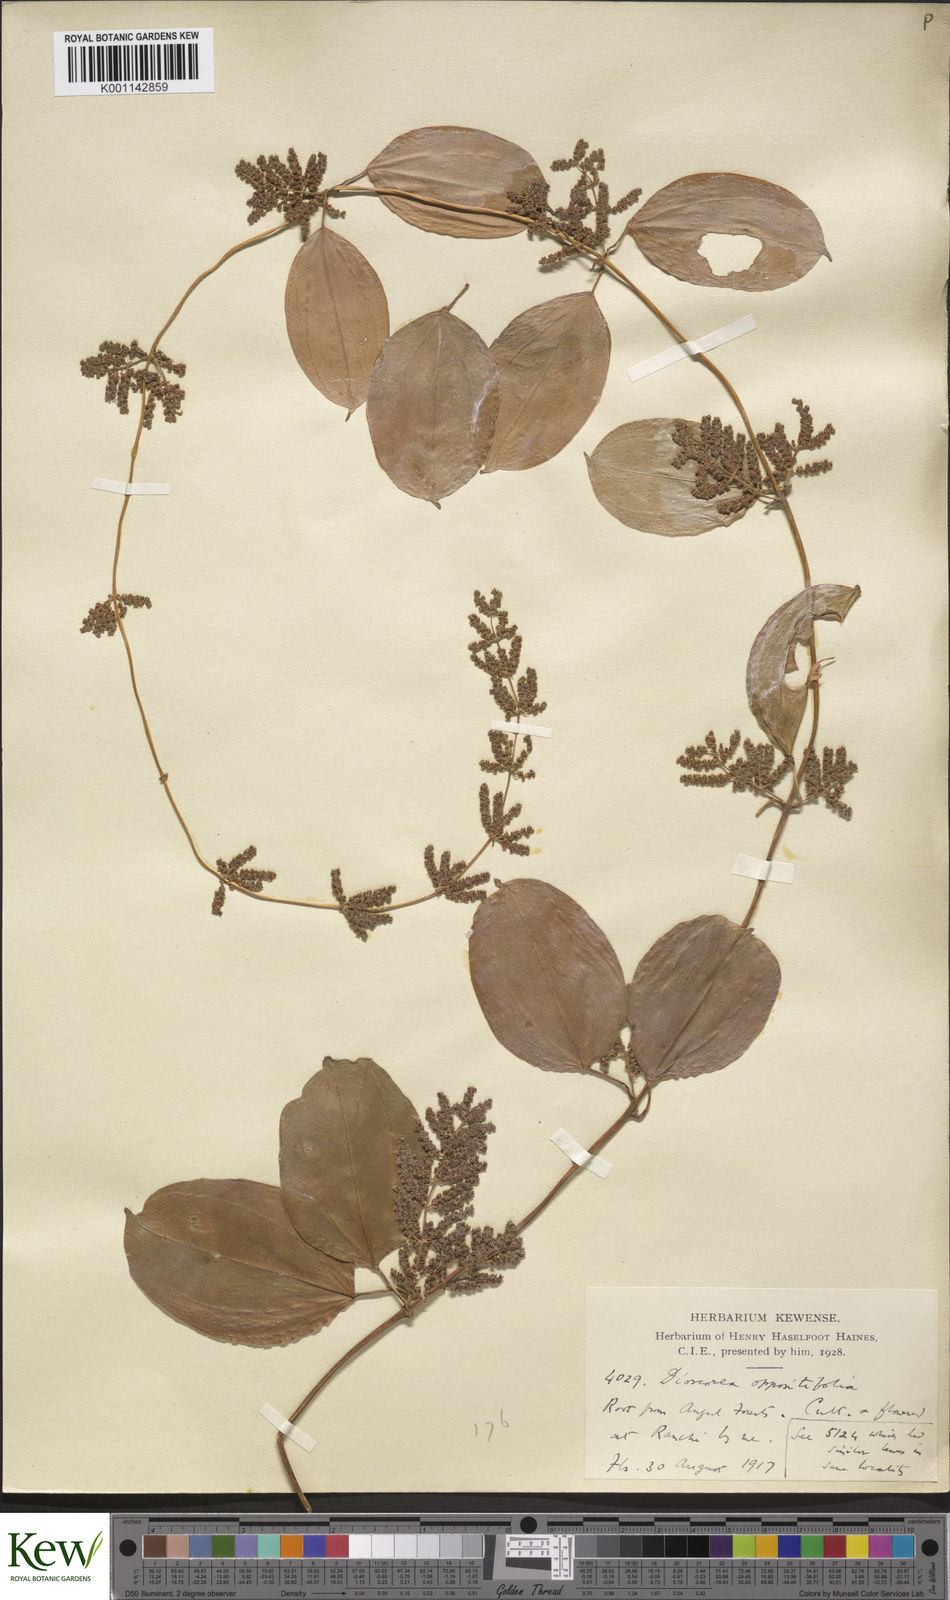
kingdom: Plantae
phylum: Tracheophyta
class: Liliopsida
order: Dioscoreales
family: Dioscoreaceae
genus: Dioscorea
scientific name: Dioscorea oppositifolia
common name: Chinese yam
